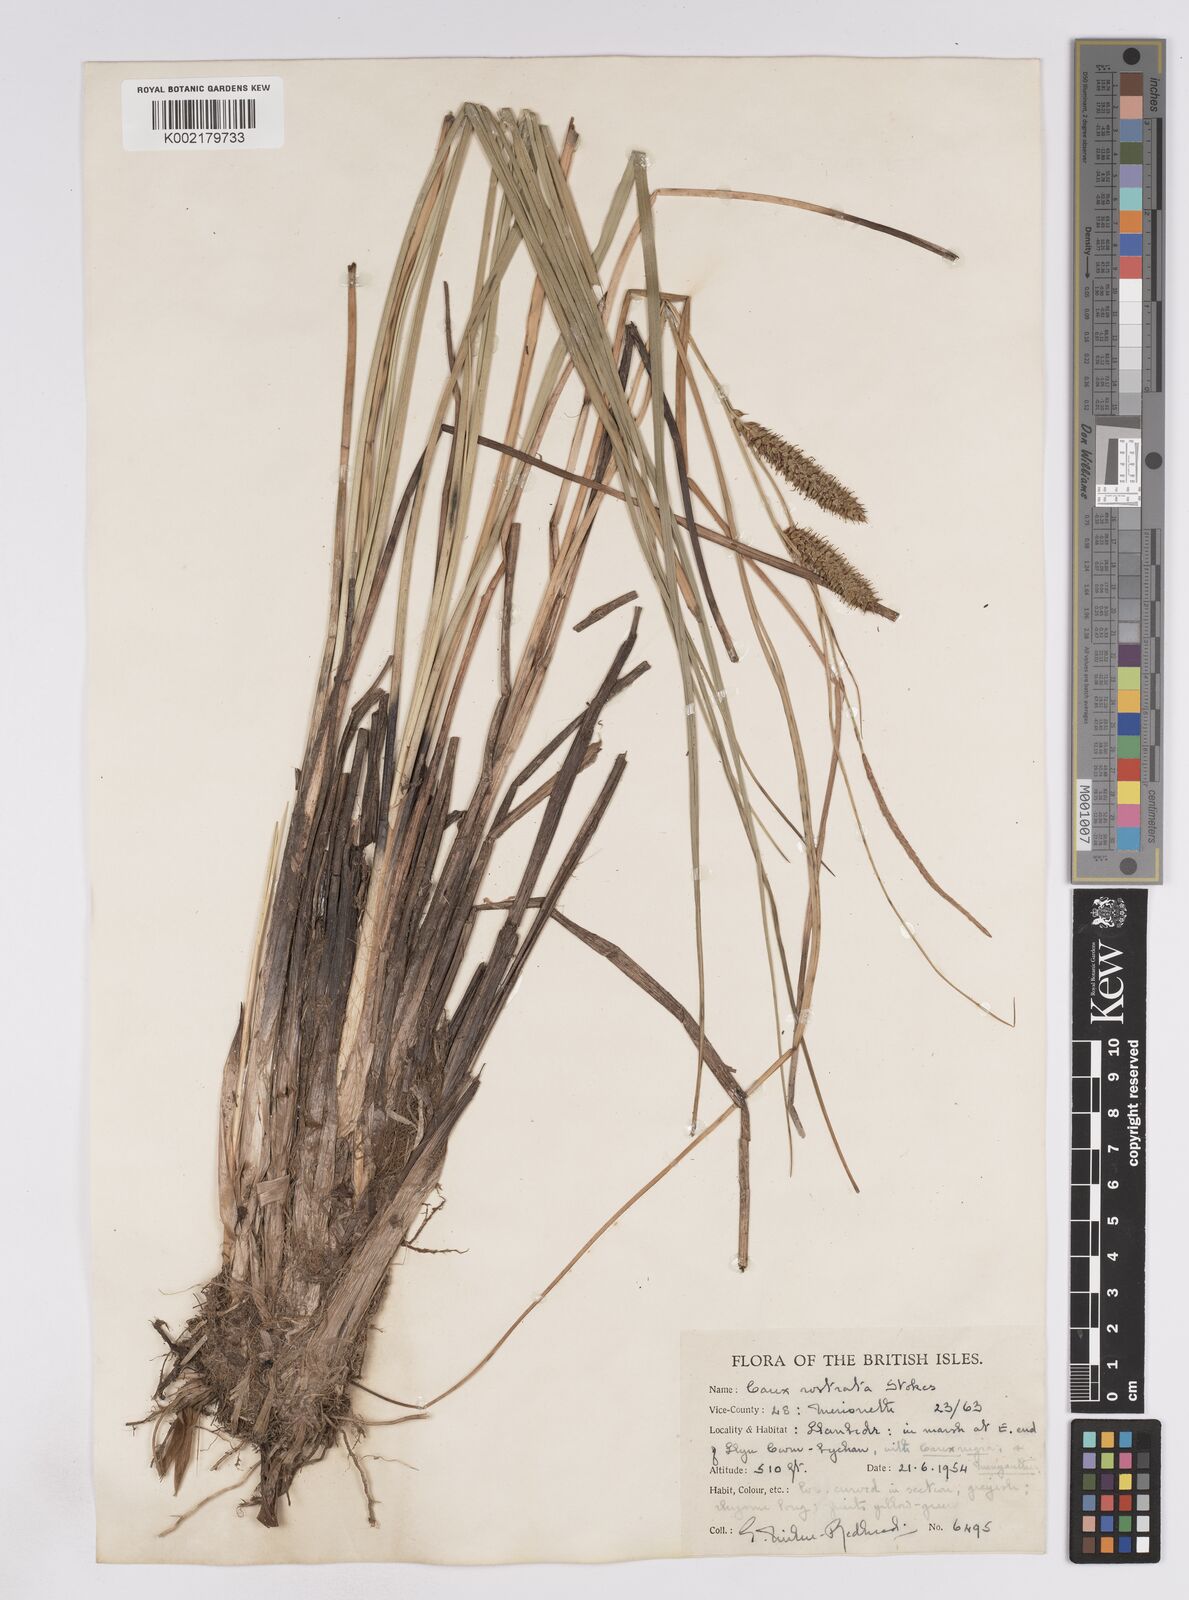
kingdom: Plantae
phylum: Tracheophyta
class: Liliopsida
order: Poales
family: Cyperaceae
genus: Carex
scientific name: Carex rostrata
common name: Bottle sedge
